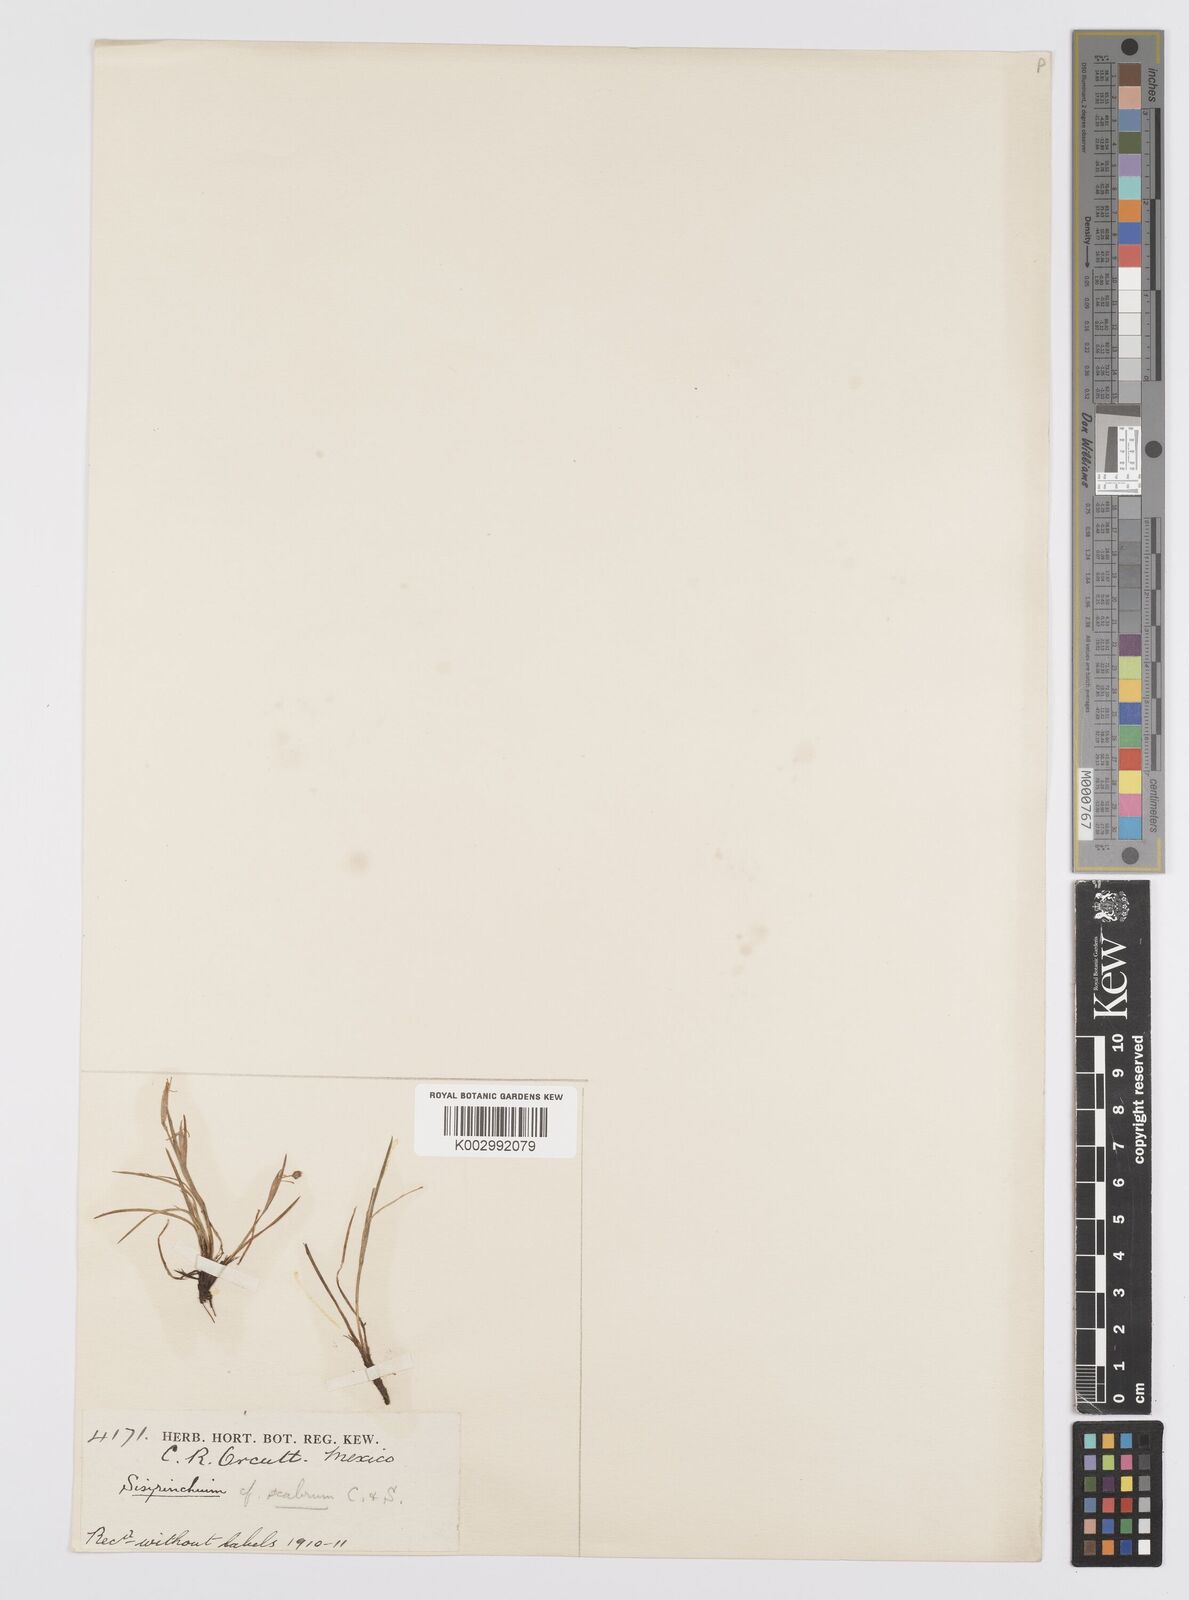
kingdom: Plantae
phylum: Tracheophyta
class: Liliopsida
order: Asparagales
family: Iridaceae
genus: Sisyrinchium
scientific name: Sisyrinchium bermudiana
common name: Blue-eyed-grass
